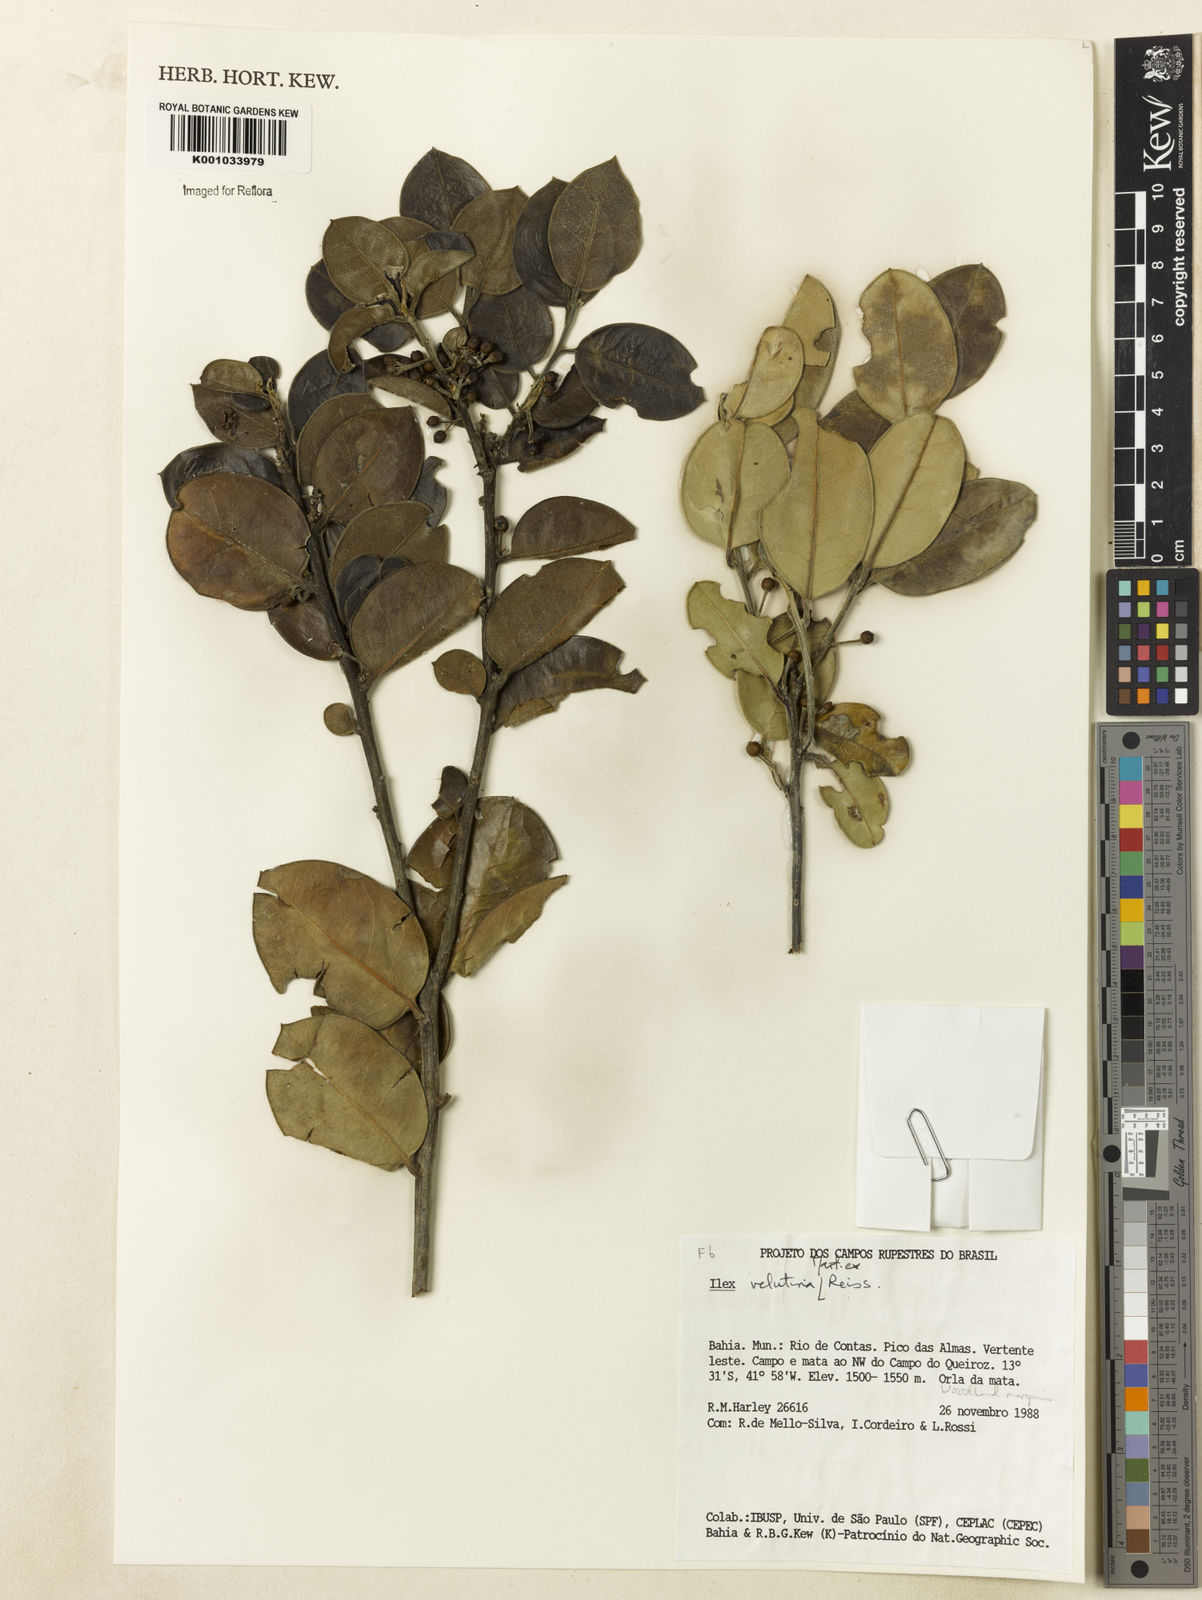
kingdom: Plantae
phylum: Tracheophyta
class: Magnoliopsida
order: Aquifoliales
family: Aquifoliaceae
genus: Ilex
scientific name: Ilex velutina
